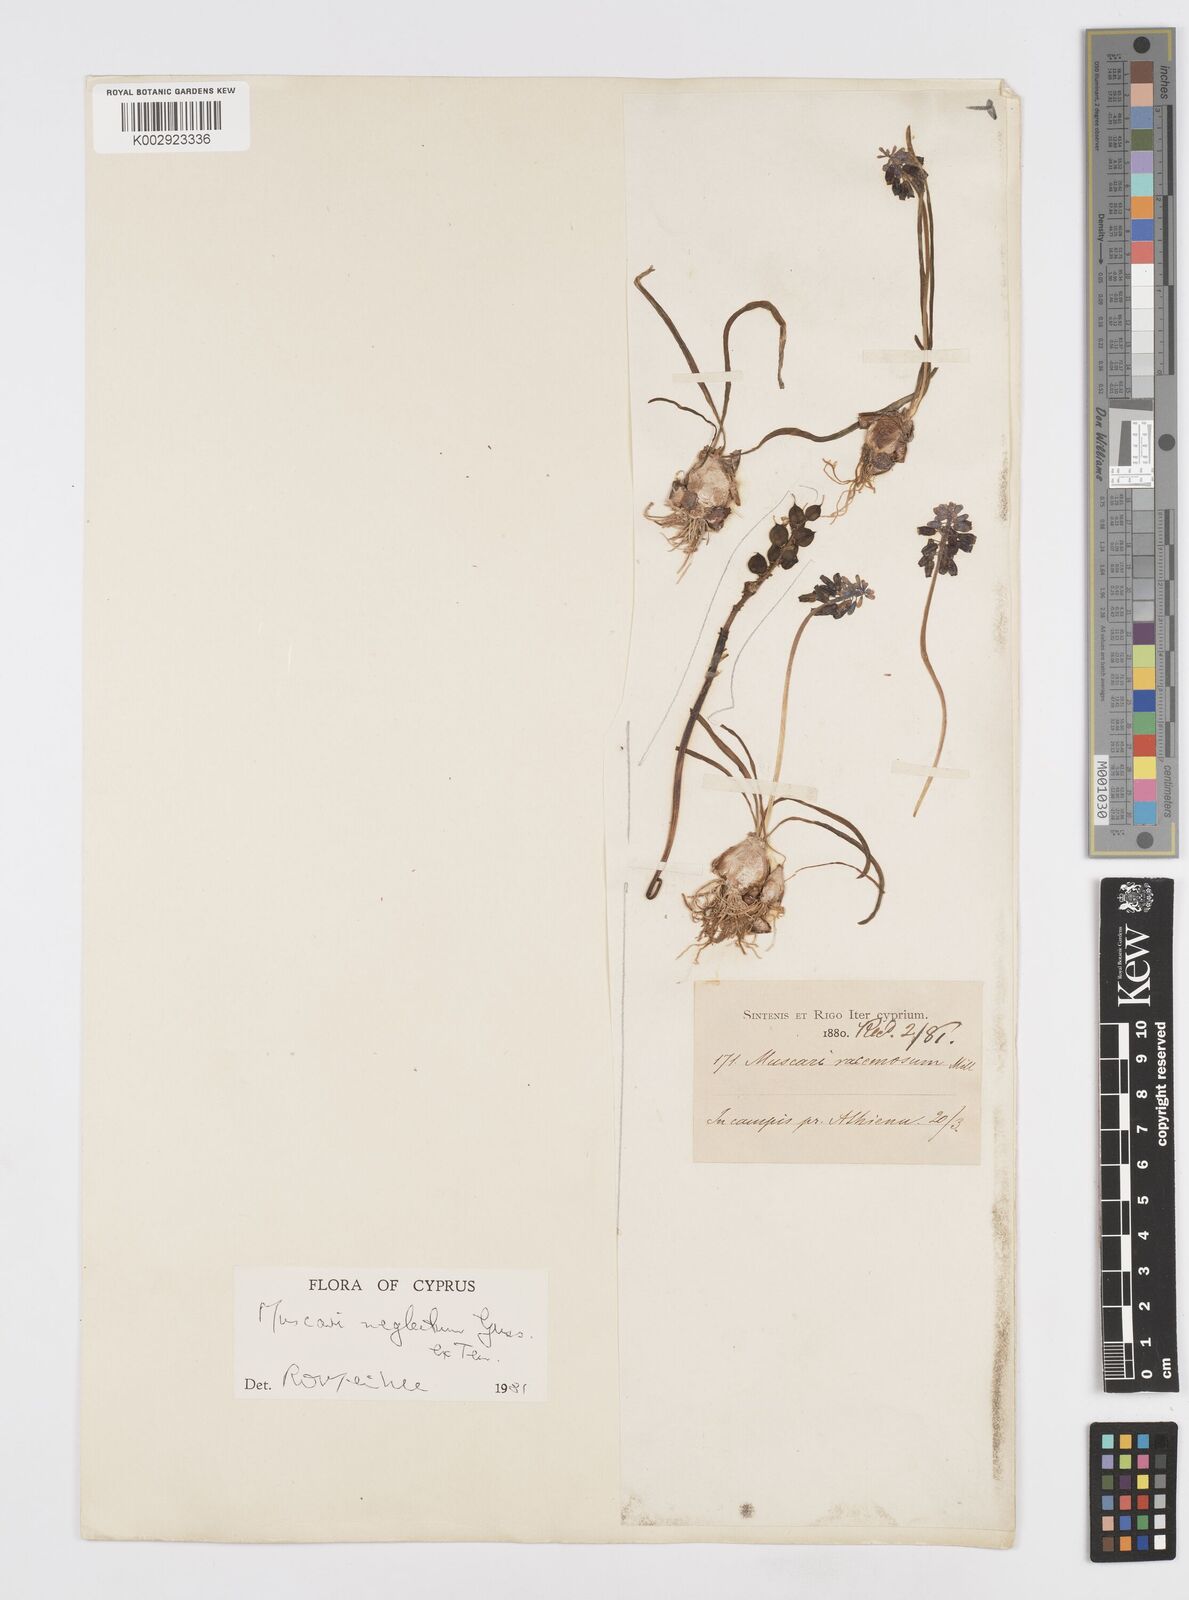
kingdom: Plantae
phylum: Tracheophyta
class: Liliopsida
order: Asparagales
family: Asparagaceae
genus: Muscari
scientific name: Muscari neglectum
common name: Grape-hyacinth
